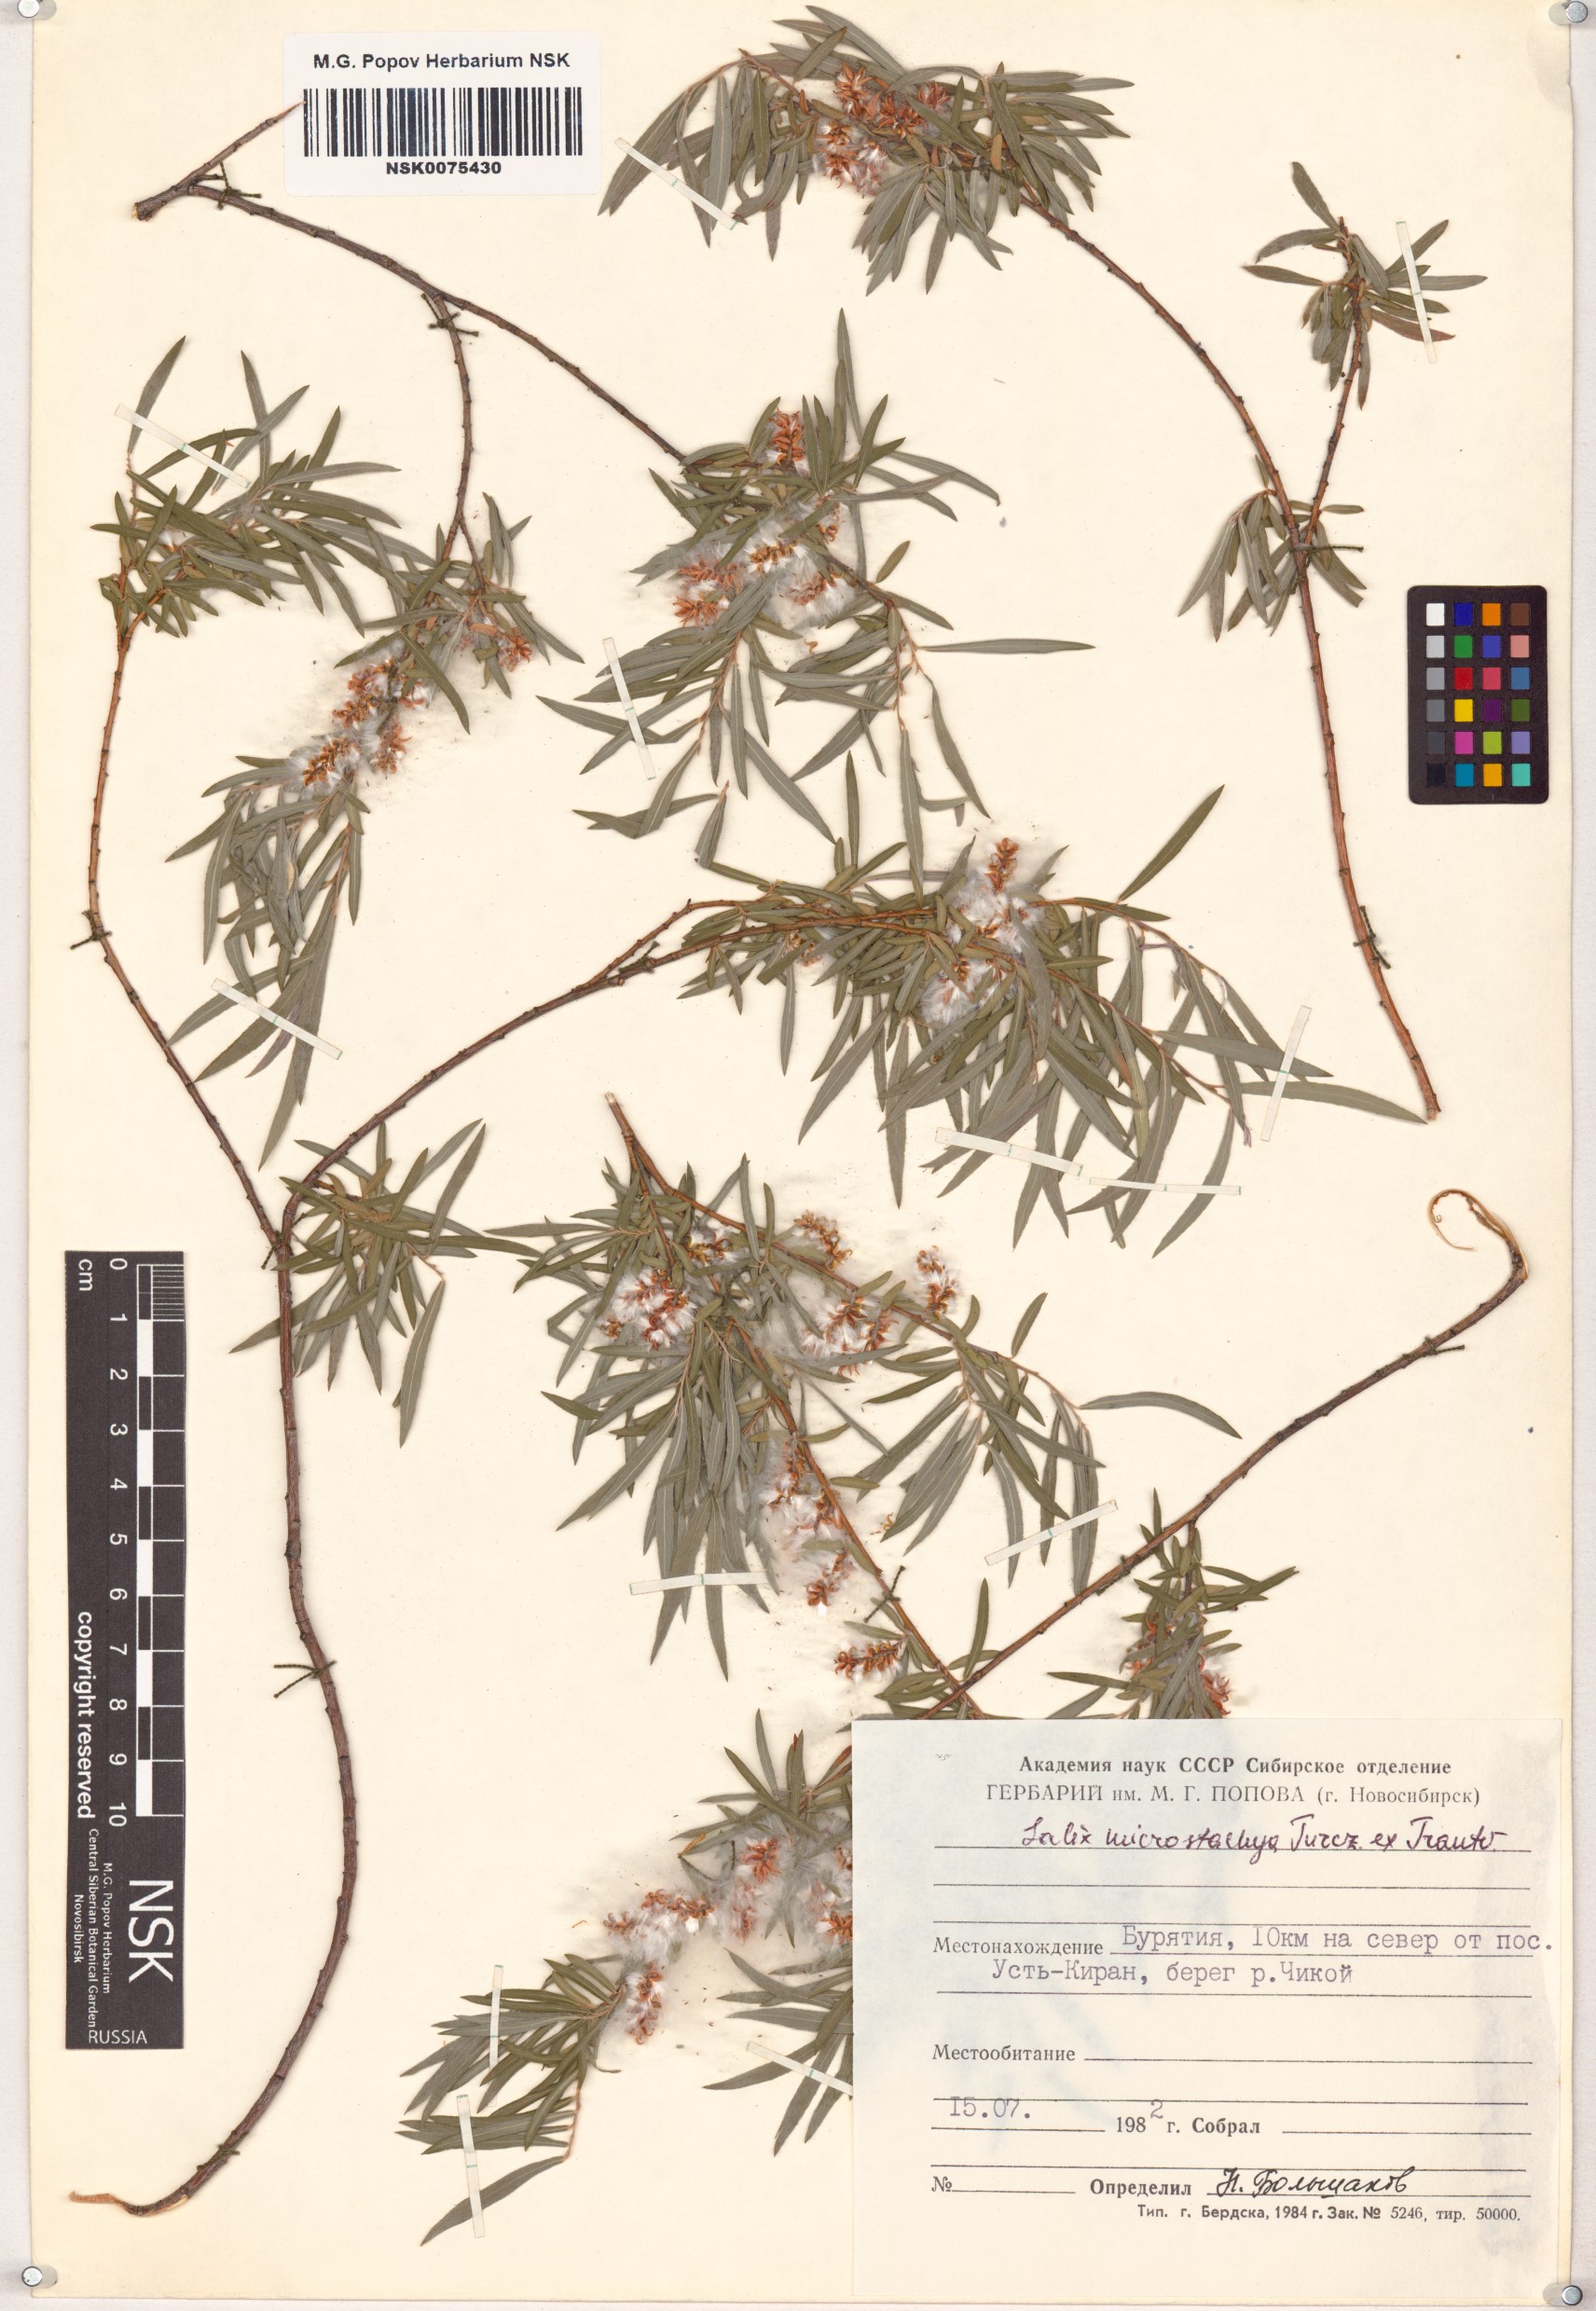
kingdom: Plantae
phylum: Tracheophyta
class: Magnoliopsida
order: Malpighiales
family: Salicaceae
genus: Salix
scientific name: Salix microstachya
